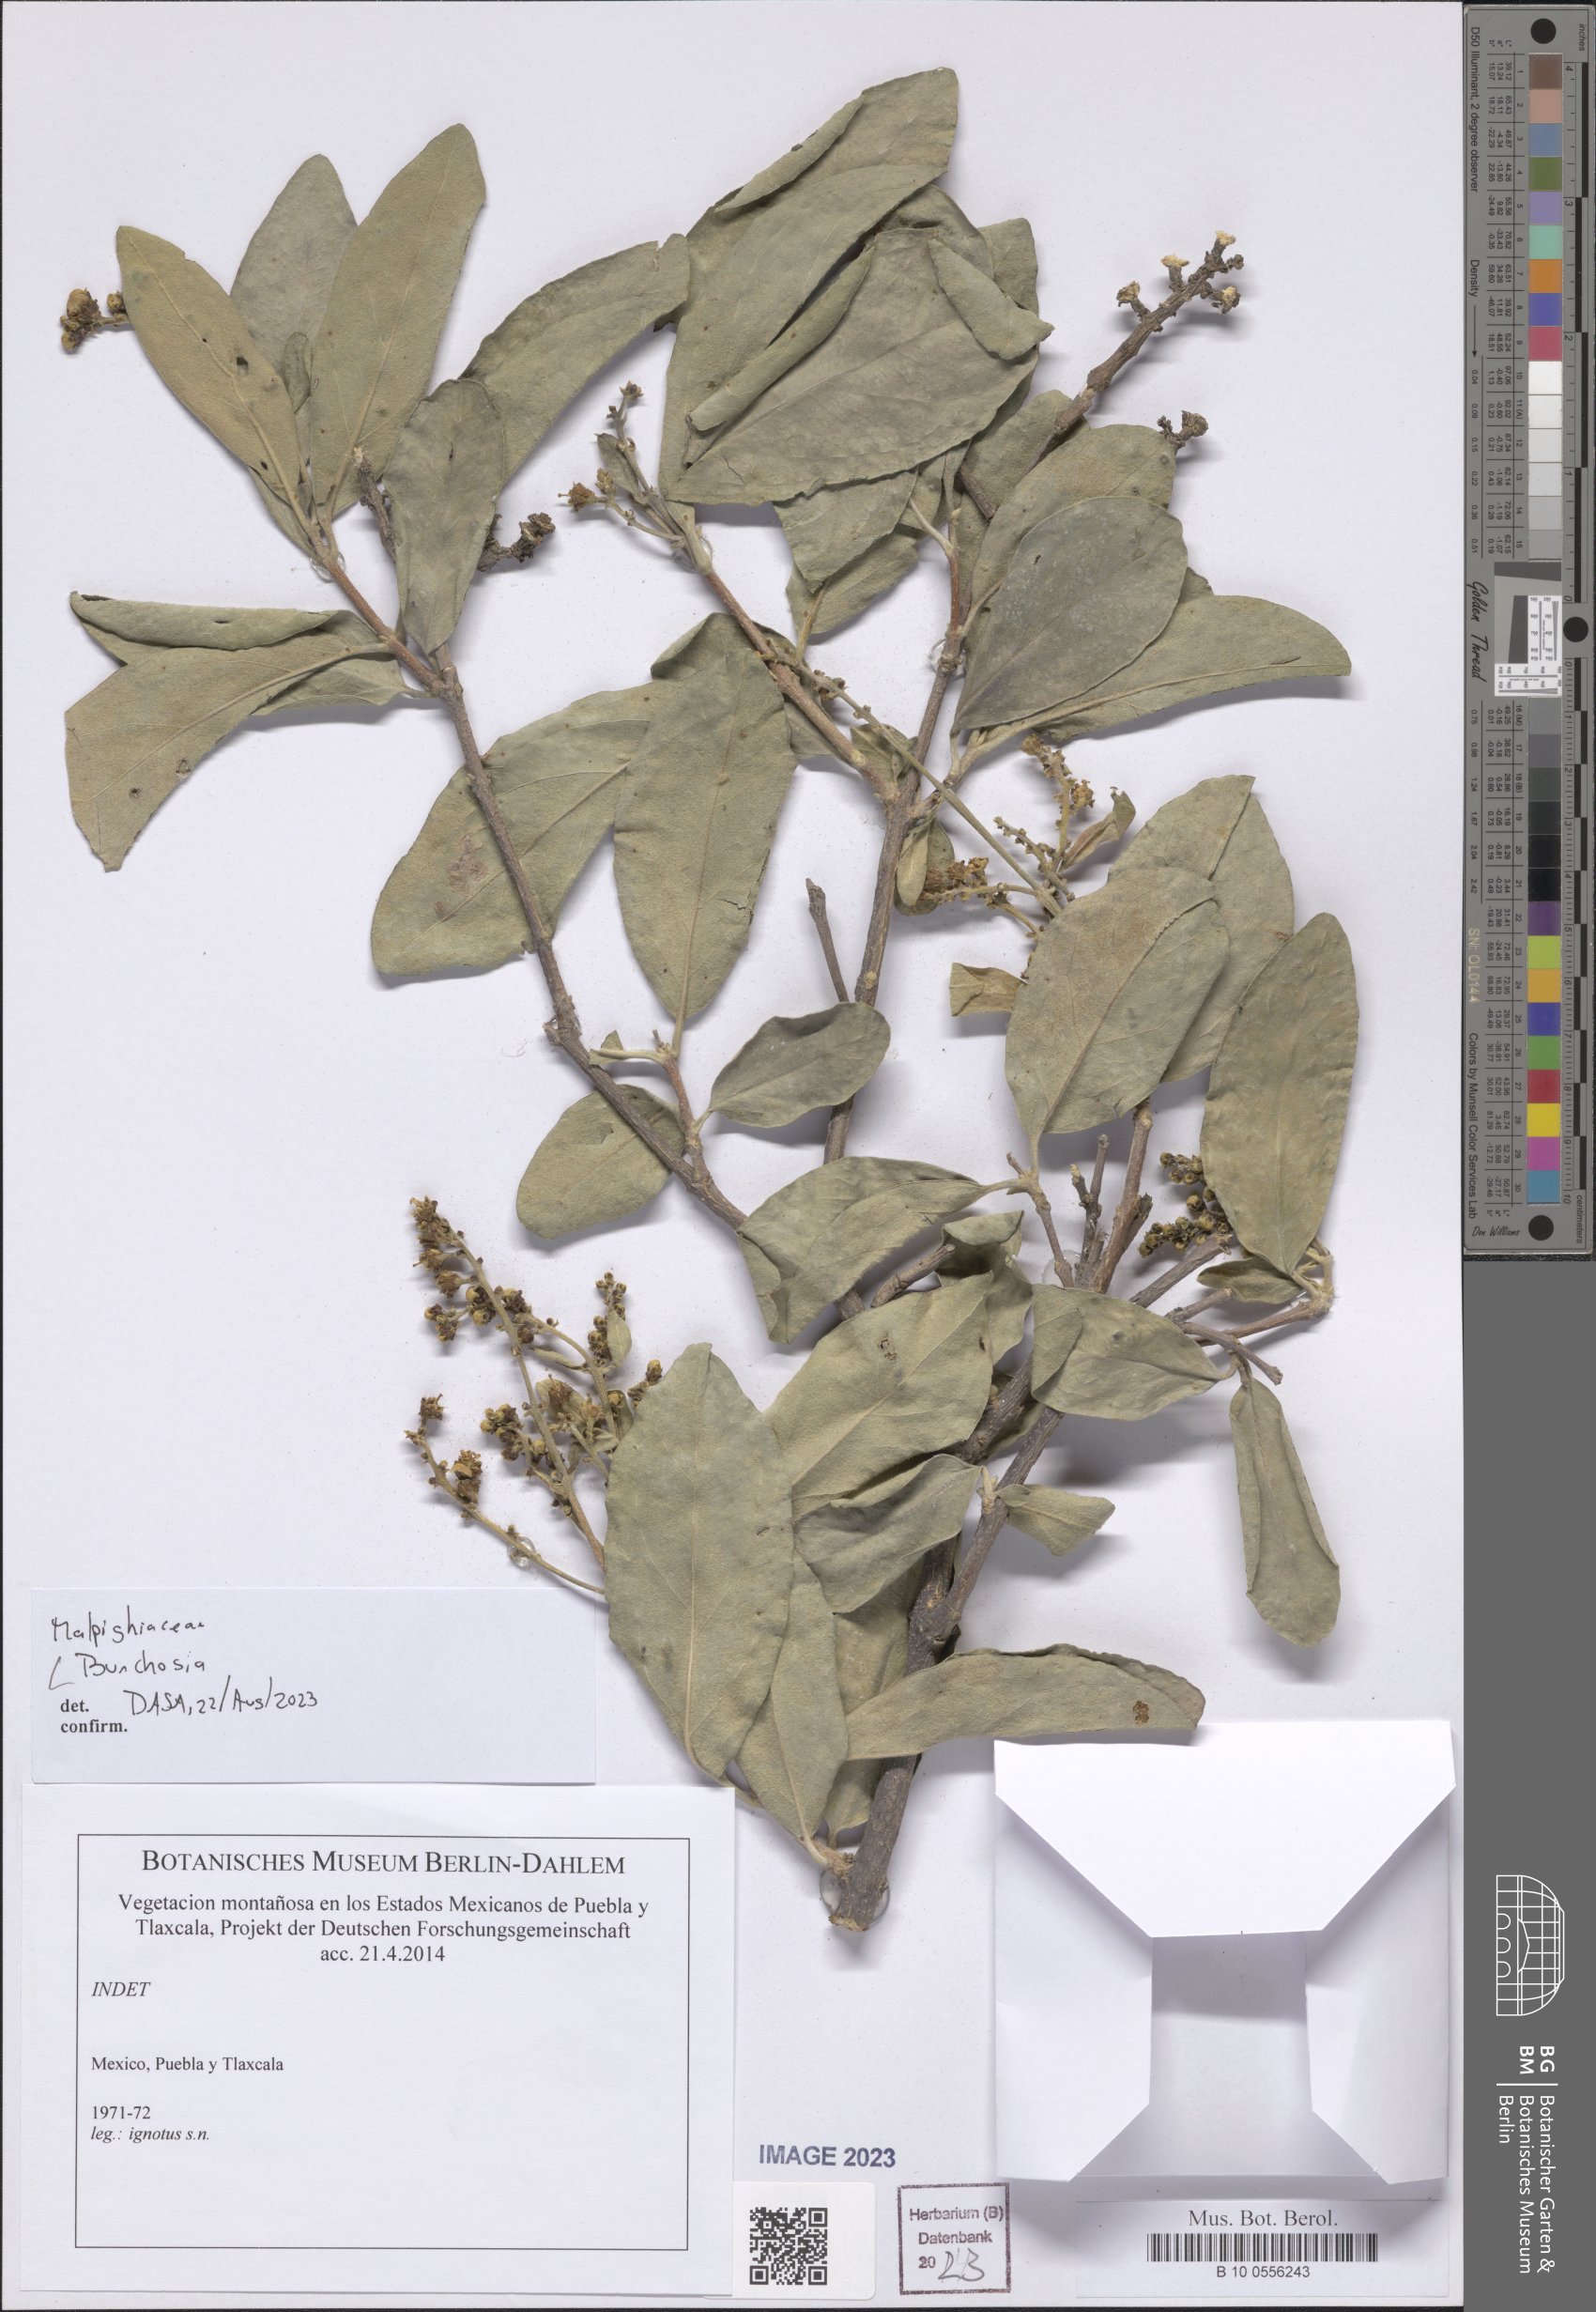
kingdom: Plantae
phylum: Tracheophyta
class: Magnoliopsida
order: Malpighiales
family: Malpighiaceae
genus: Bunchosia
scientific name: Bunchosia
